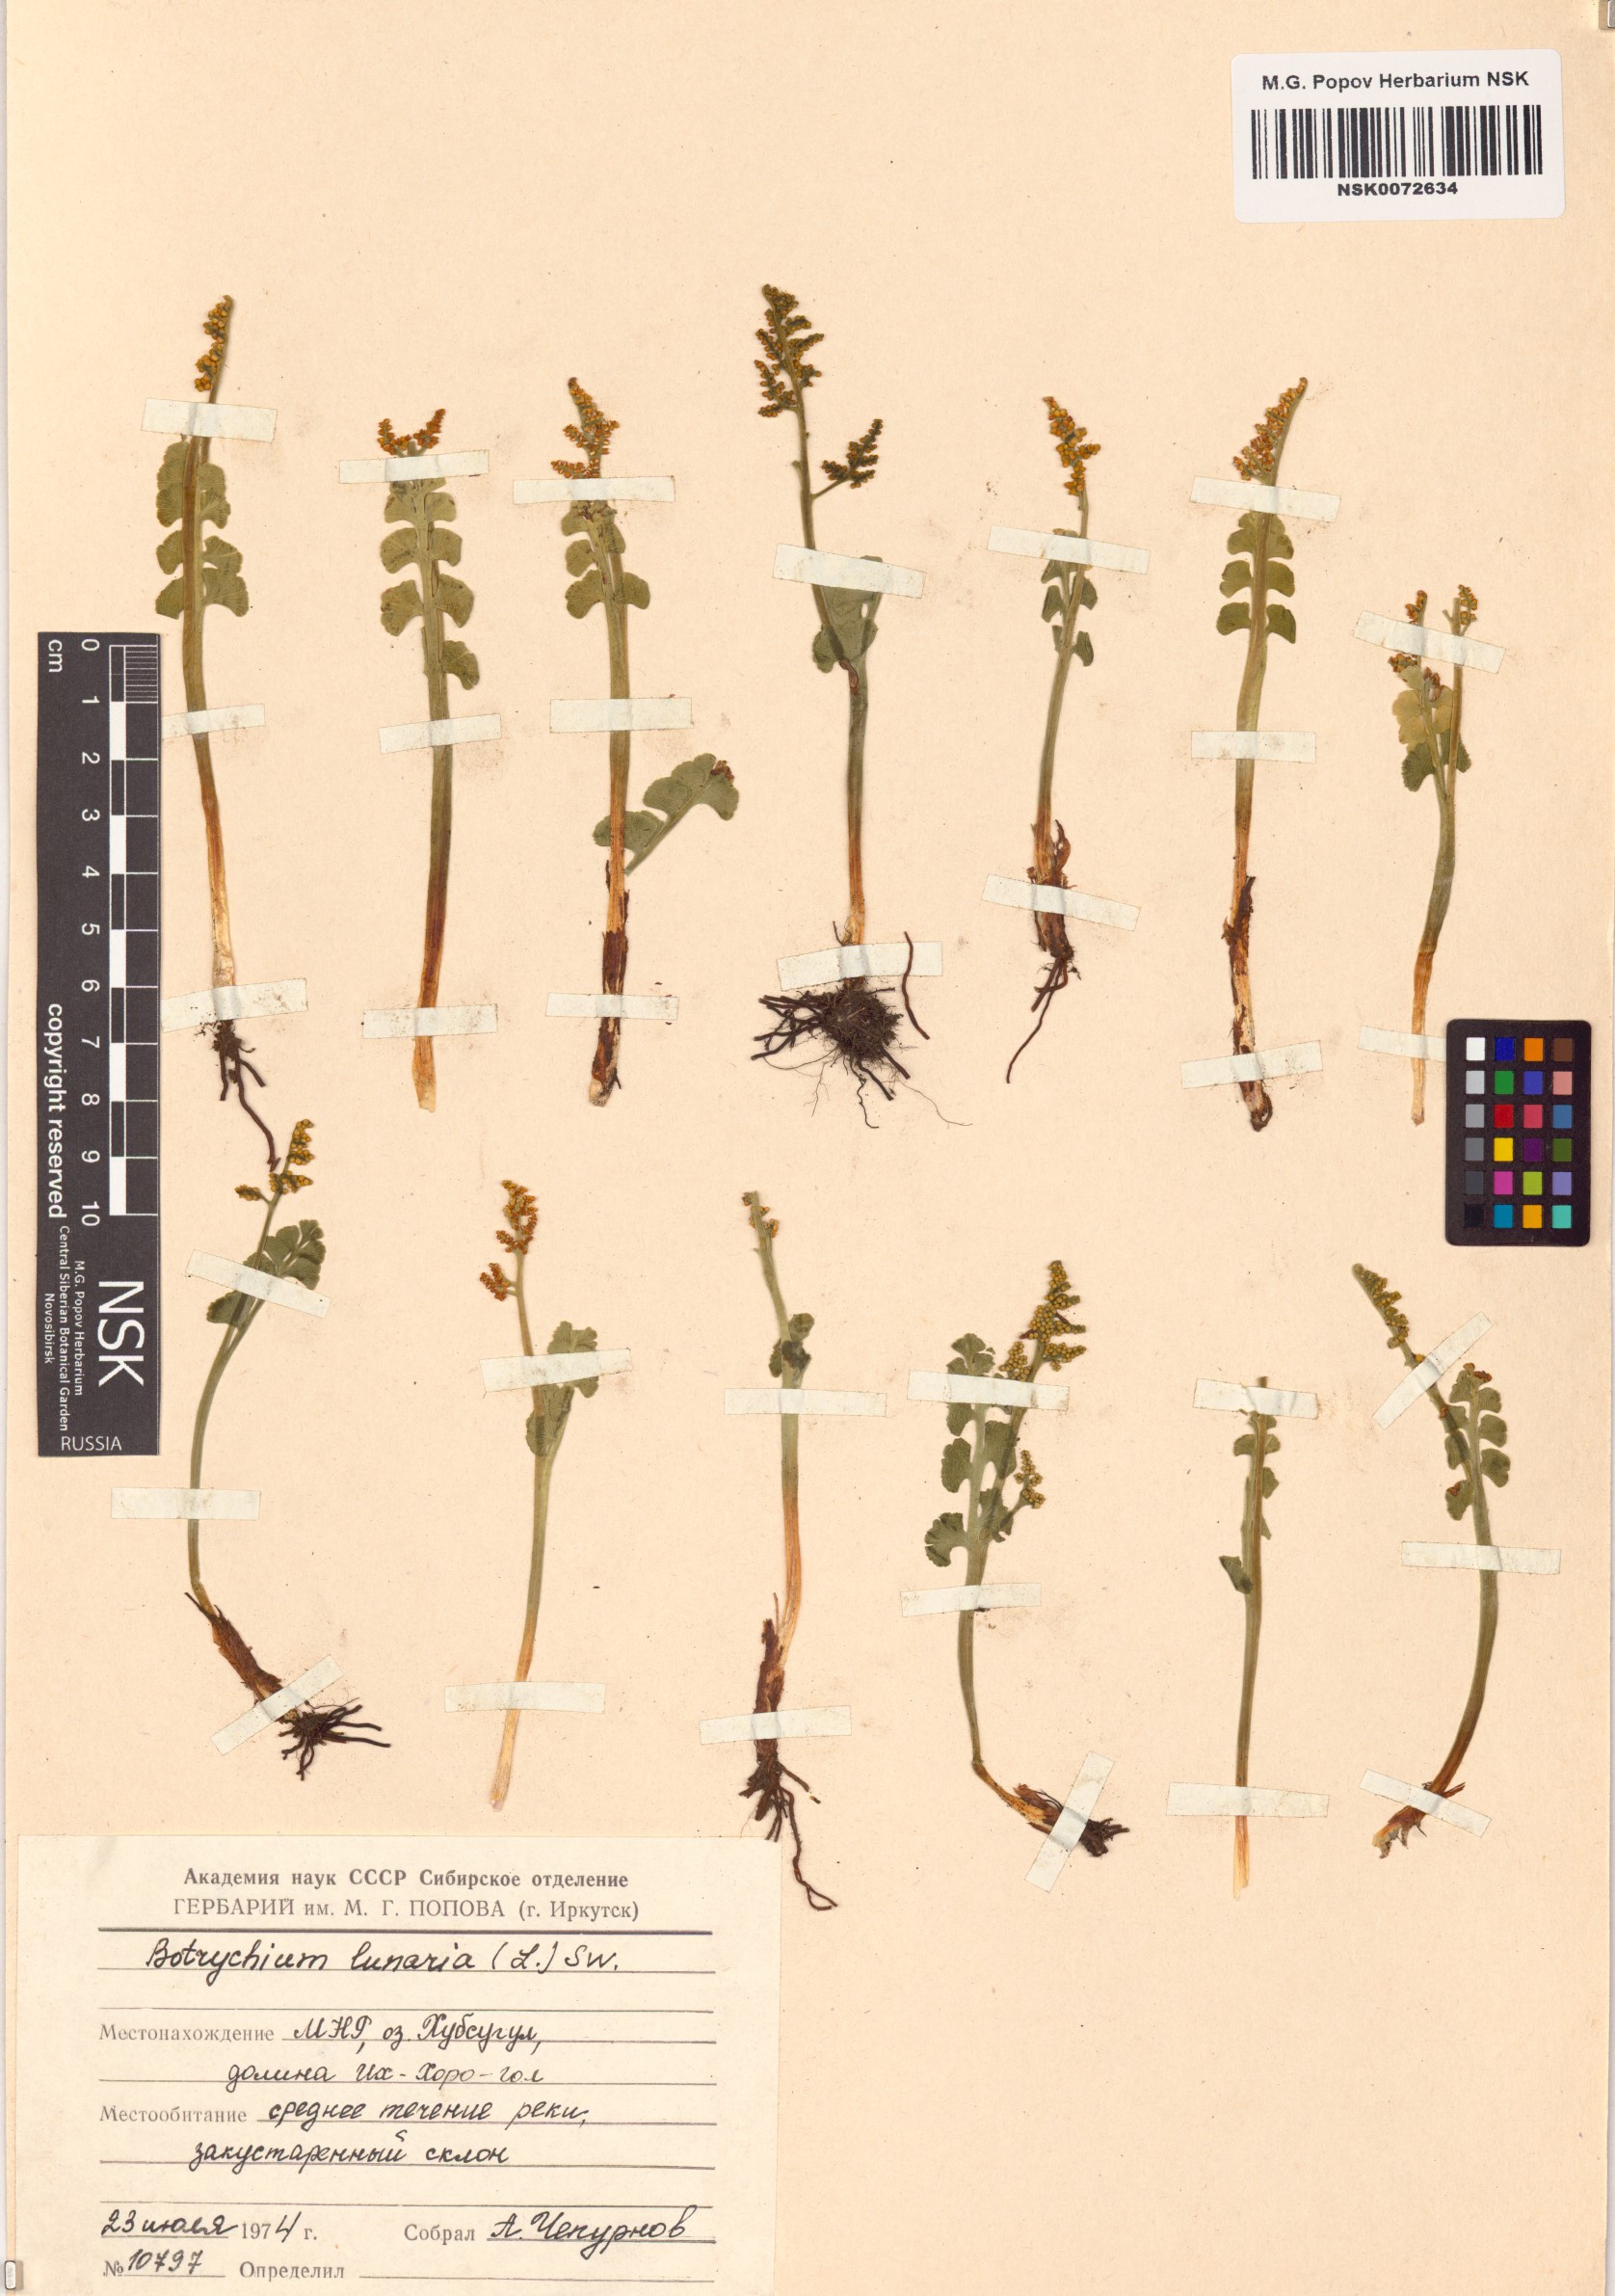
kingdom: Plantae
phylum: Tracheophyta
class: Polypodiopsida
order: Ophioglossales
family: Ophioglossaceae
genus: Botrychium
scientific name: Botrychium lunaria
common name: Moonwort
